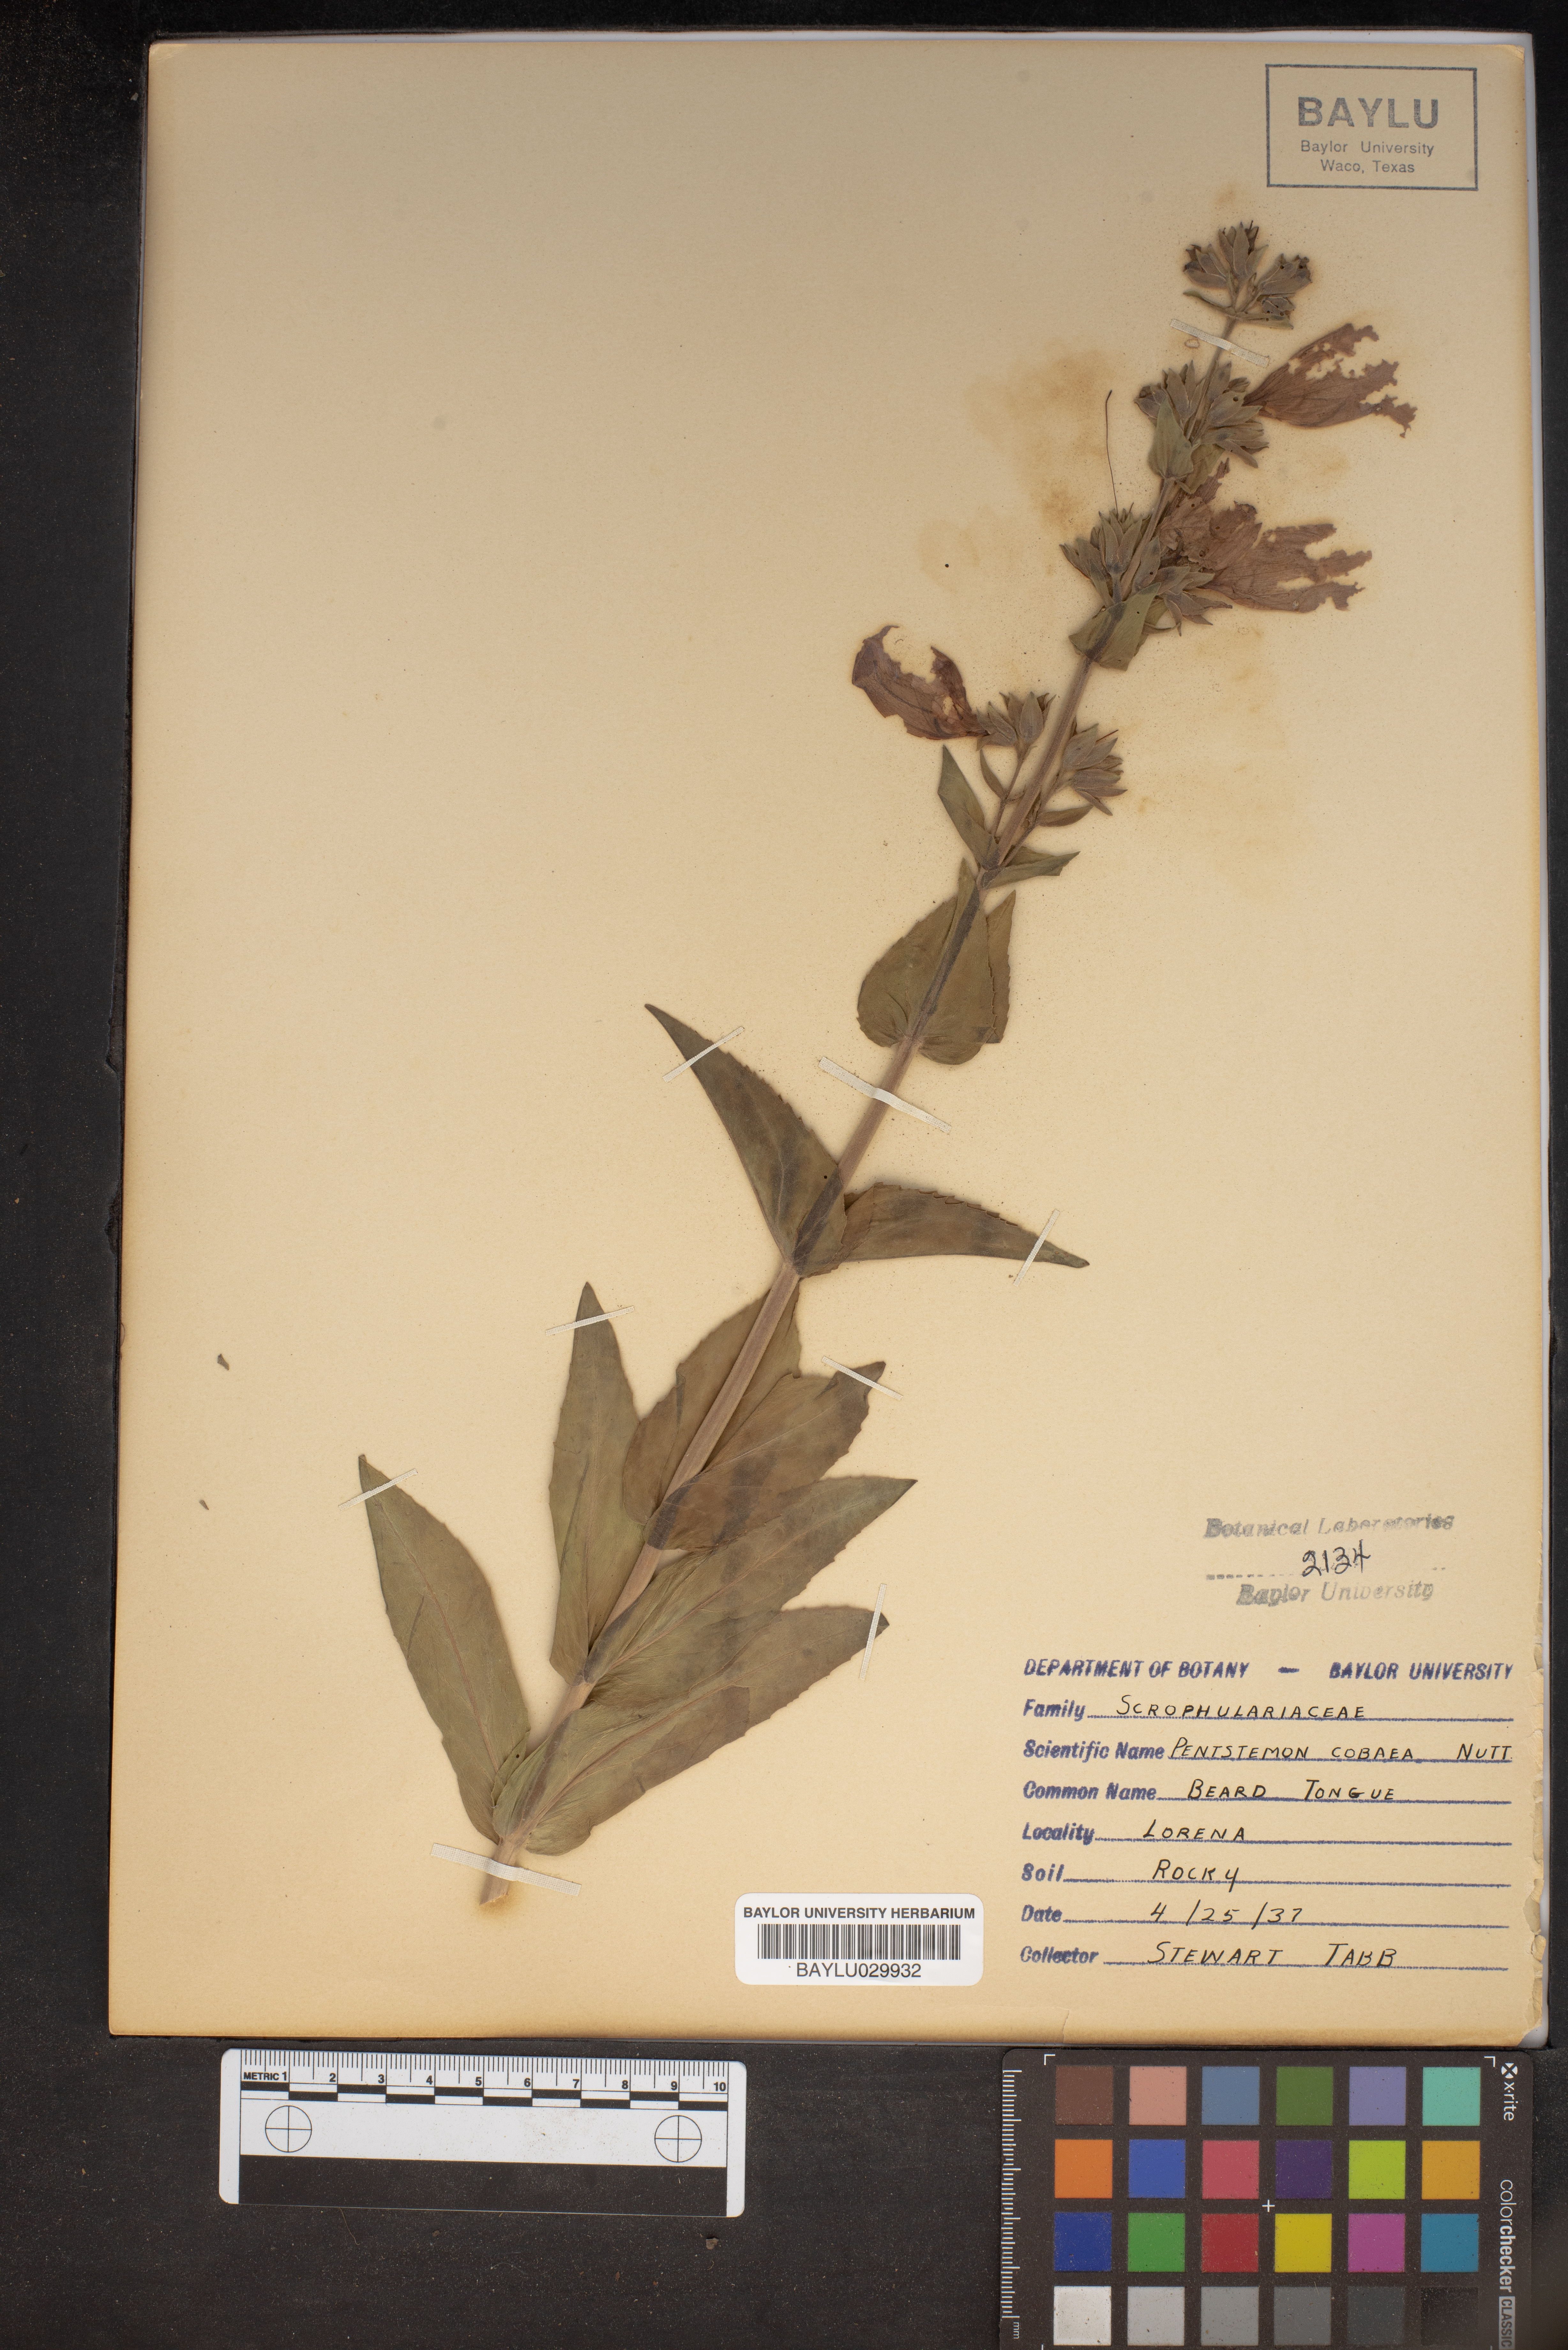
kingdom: Plantae
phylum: Tracheophyta
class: Magnoliopsida
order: Lamiales
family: Plantaginaceae
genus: Penstemon
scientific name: Penstemon cobaea
